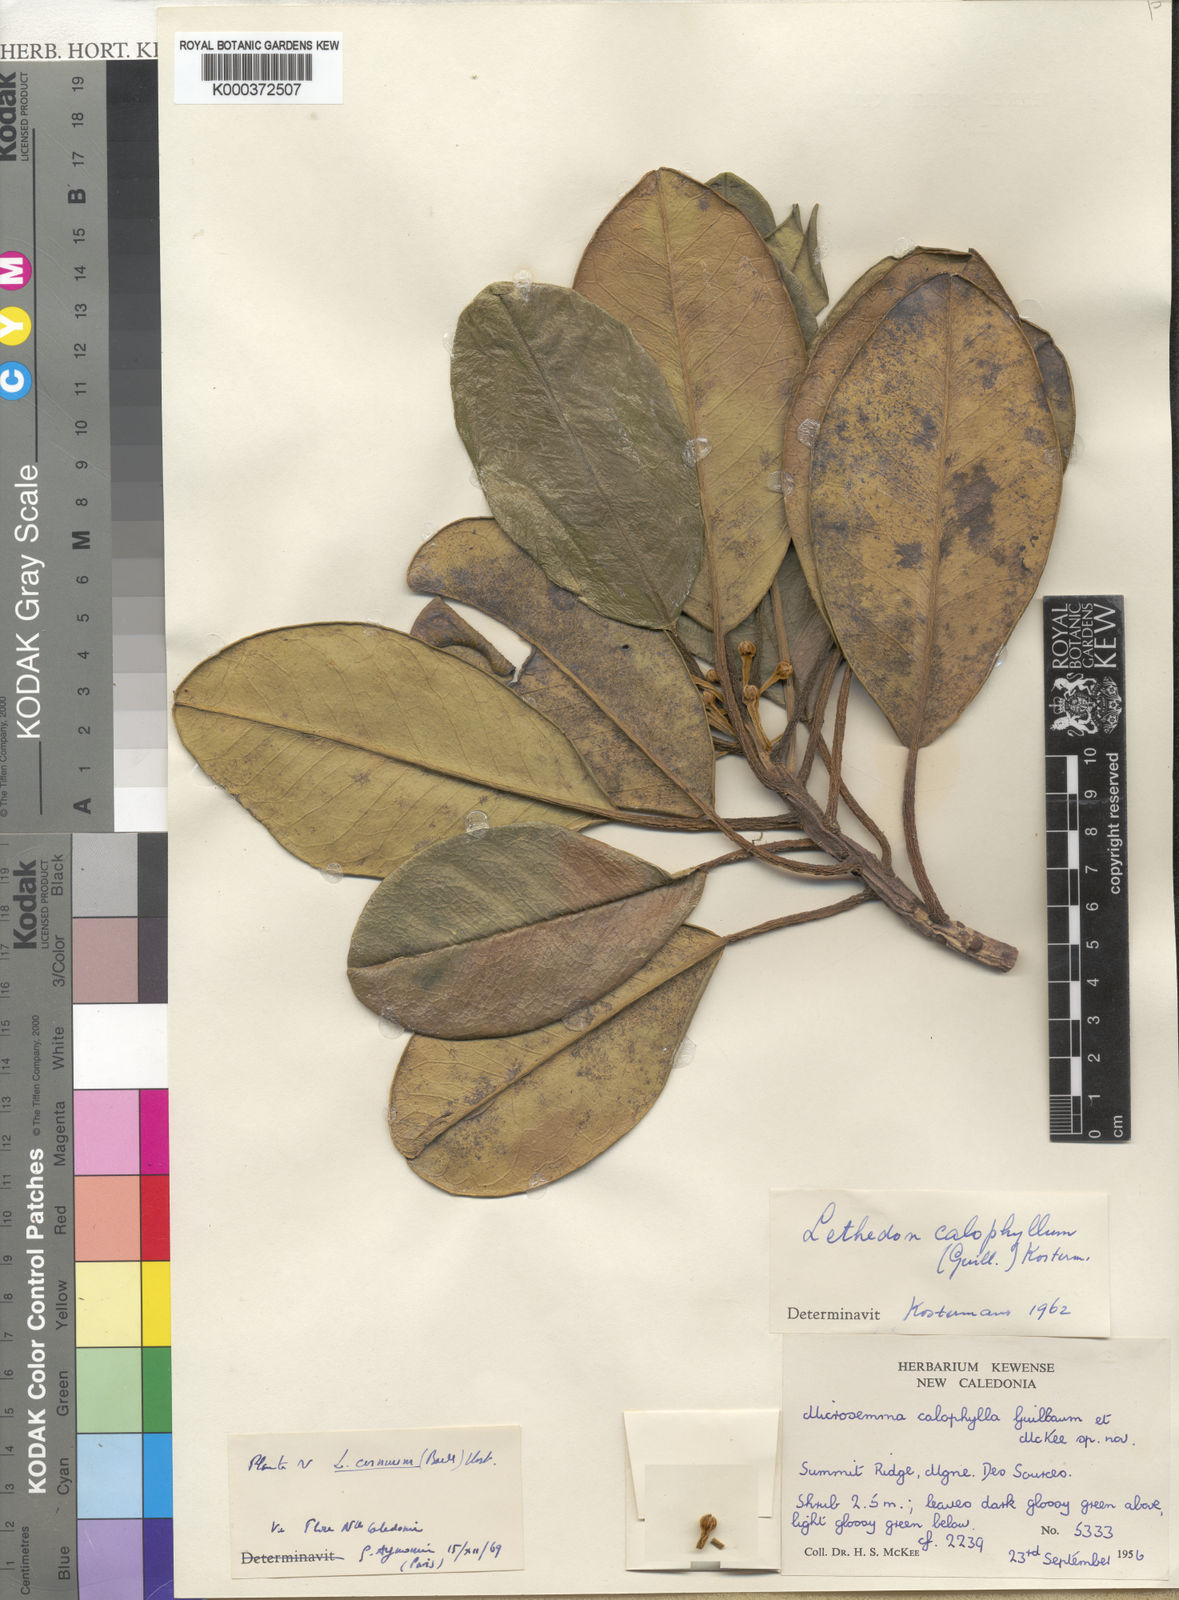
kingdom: Plantae
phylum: Tracheophyta
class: Magnoliopsida
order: Malvales
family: Thymelaeaceae
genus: Lethedon
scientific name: Lethedon cernua
